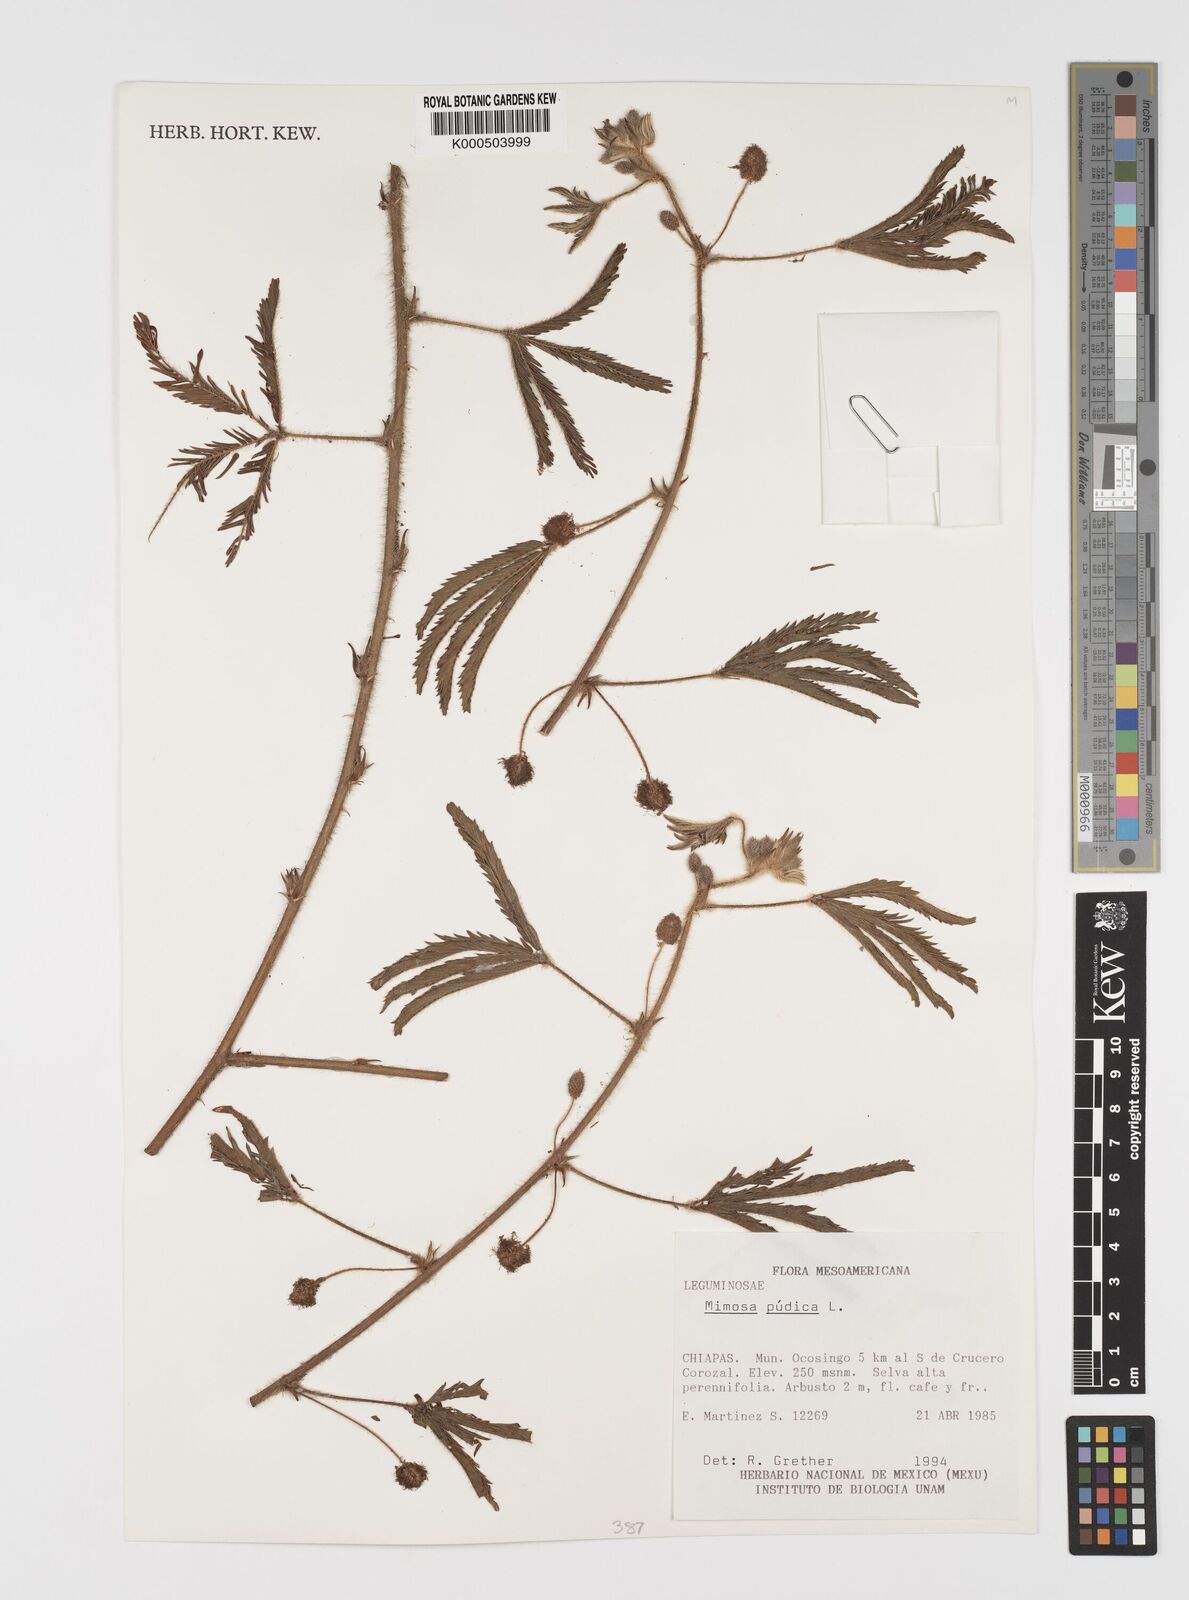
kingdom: Plantae
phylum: Tracheophyta
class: Magnoliopsida
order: Fabales
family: Fabaceae
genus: Mimosa
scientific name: Mimosa pudica
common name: Sensitive plant
